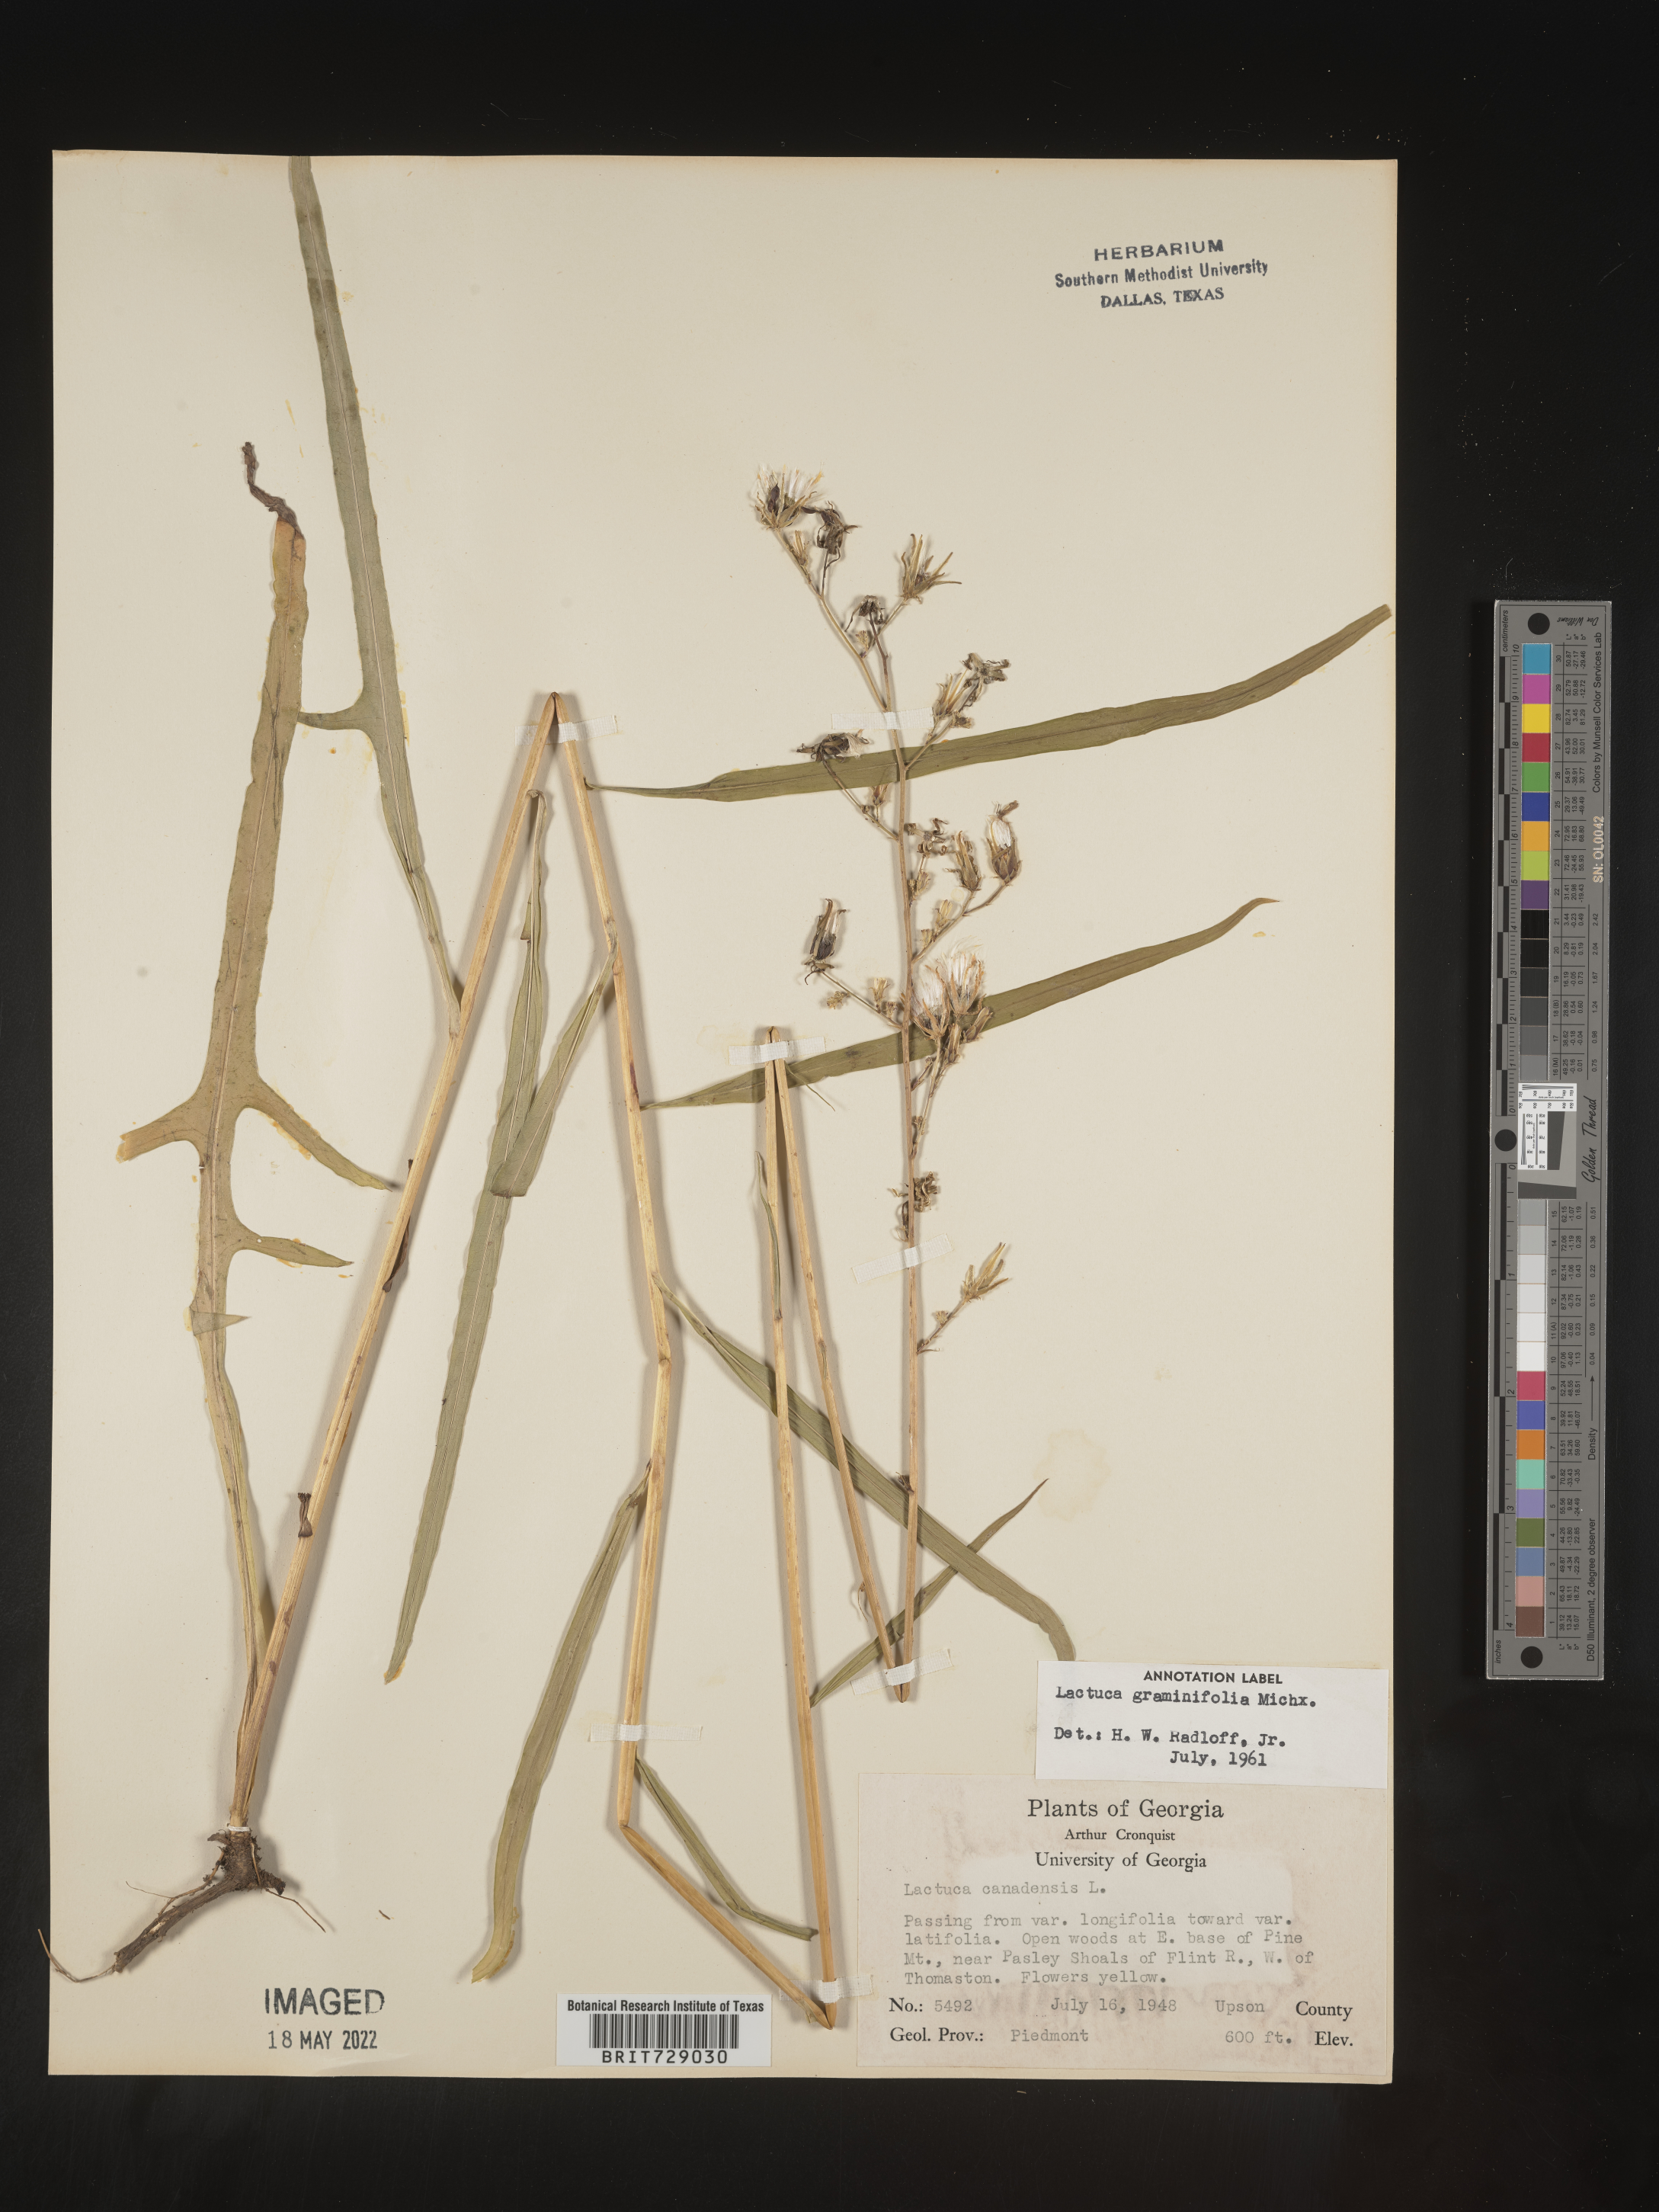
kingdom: Plantae
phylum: Tracheophyta
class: Magnoliopsida
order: Asterales
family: Asteraceae
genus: Lactuca
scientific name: Lactuca graminifolia
